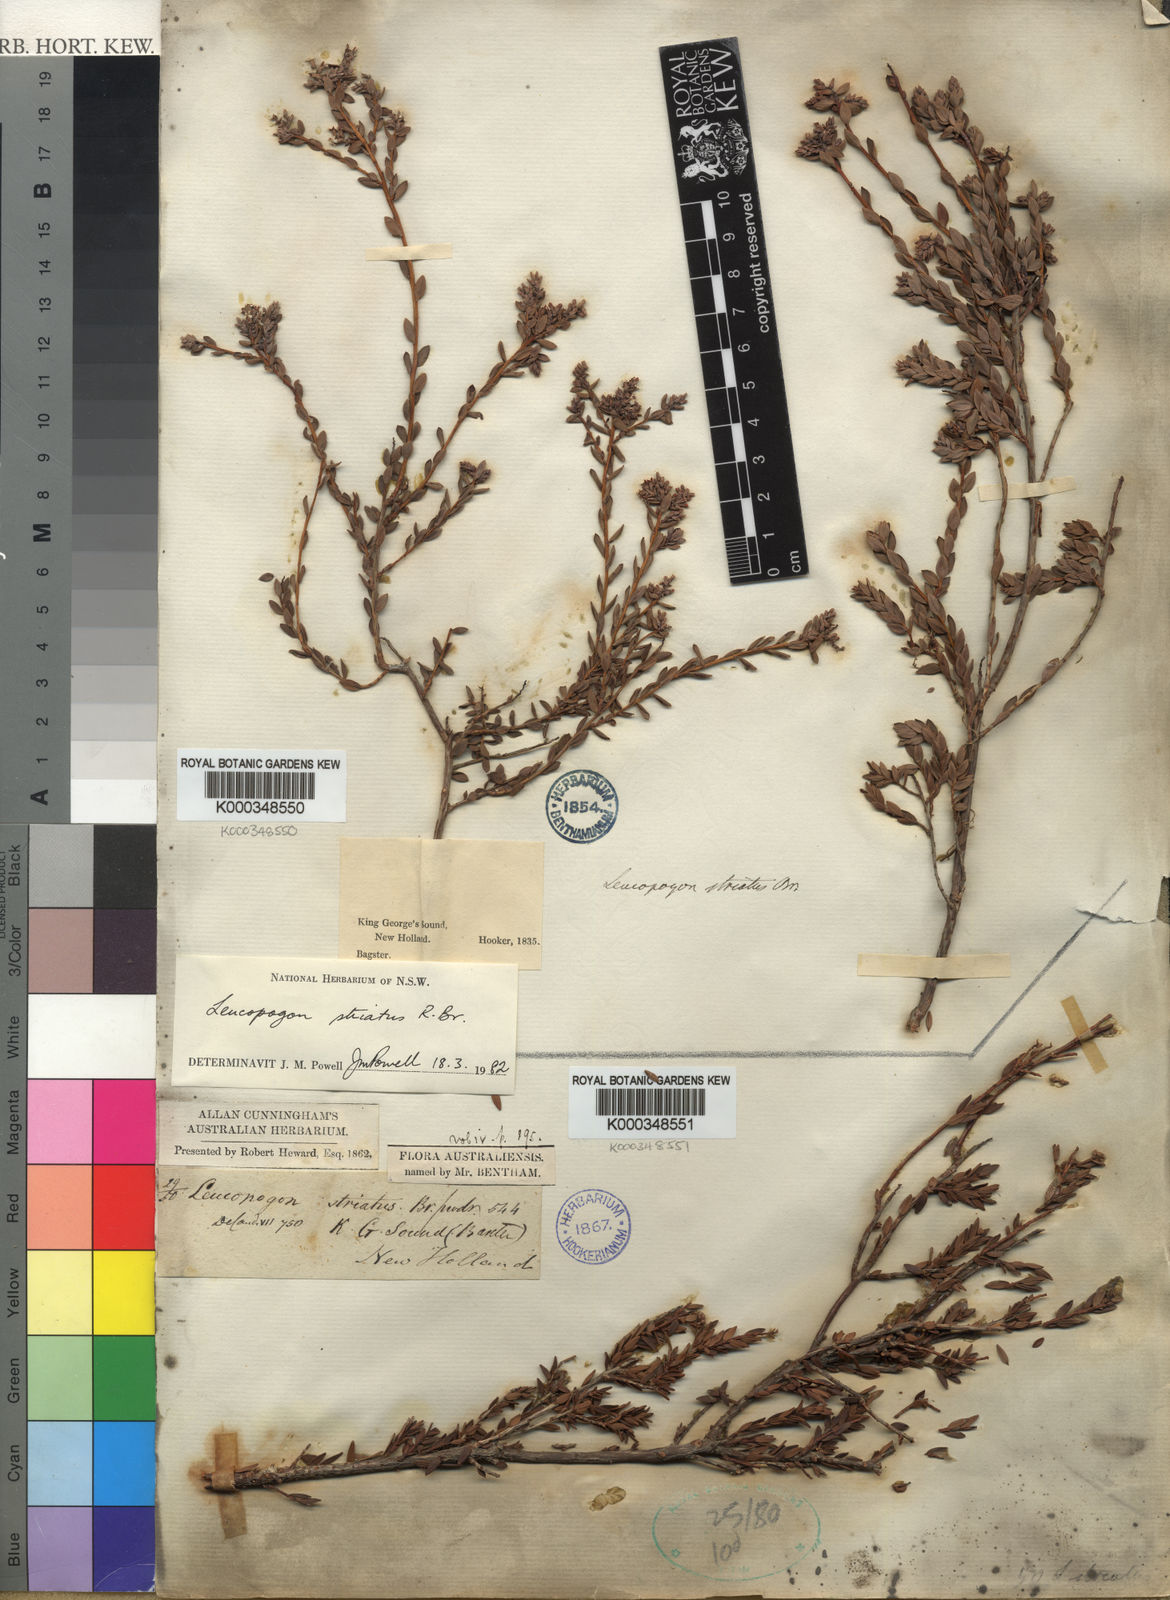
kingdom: Plantae
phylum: Tracheophyta
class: Magnoliopsida
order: Ericales
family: Ericaceae
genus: Styphelia
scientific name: Styphelia striata
